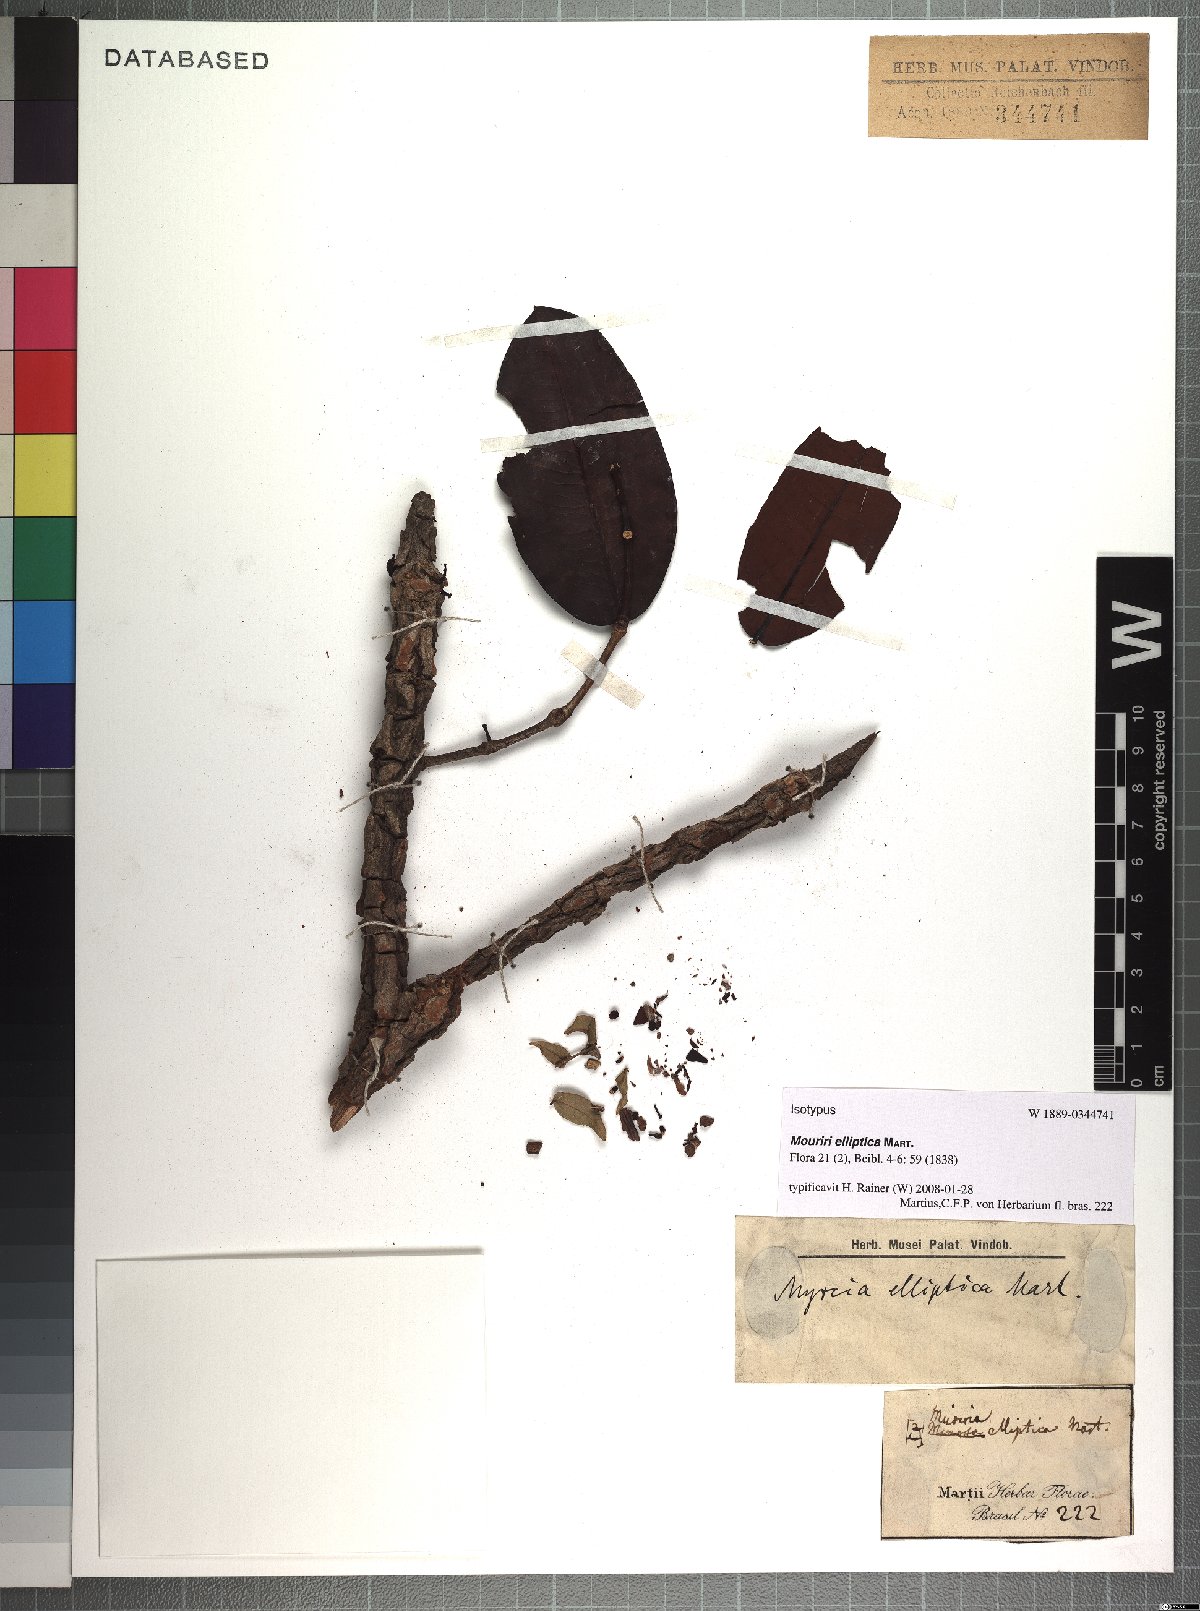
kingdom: Plantae
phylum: Tracheophyta
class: Magnoliopsida
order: Myrtales
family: Melastomataceae
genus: Mouriri
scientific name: Mouriri elliptica
